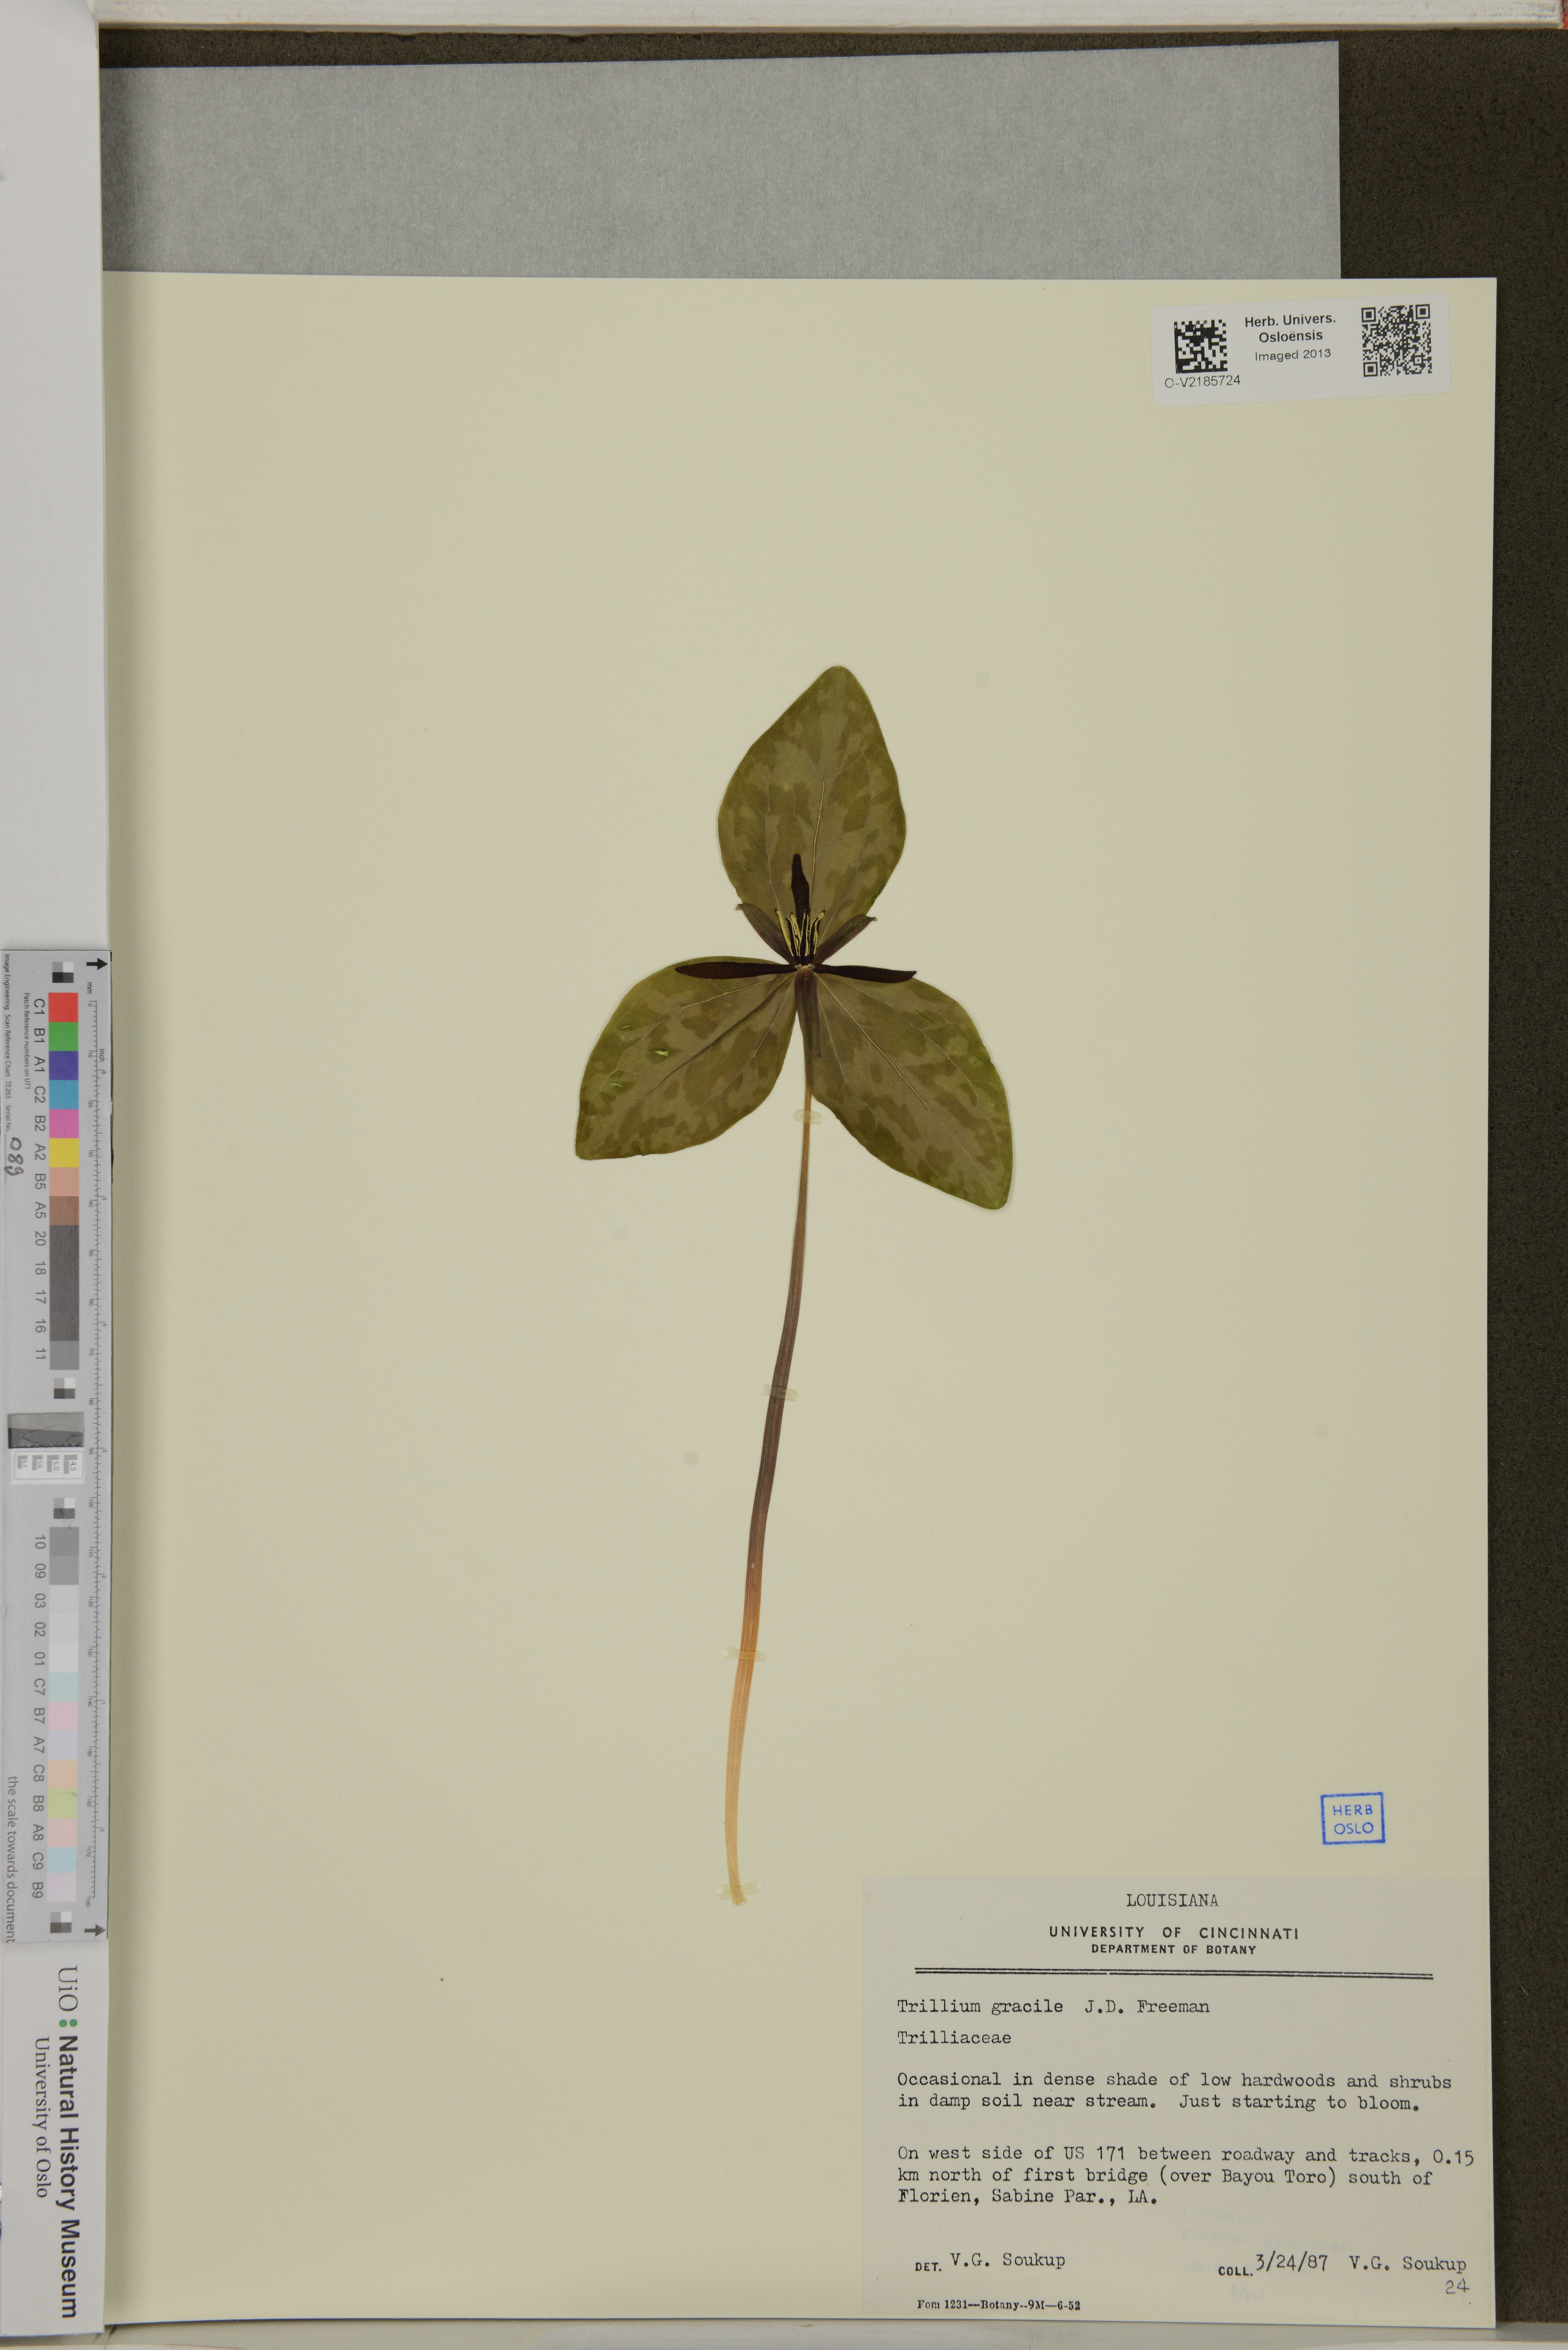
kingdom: Plantae
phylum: Tracheophyta
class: Liliopsida
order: Liliales
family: Melanthiaceae
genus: Trillium
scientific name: Trillium gracile
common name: Graceful trillium
